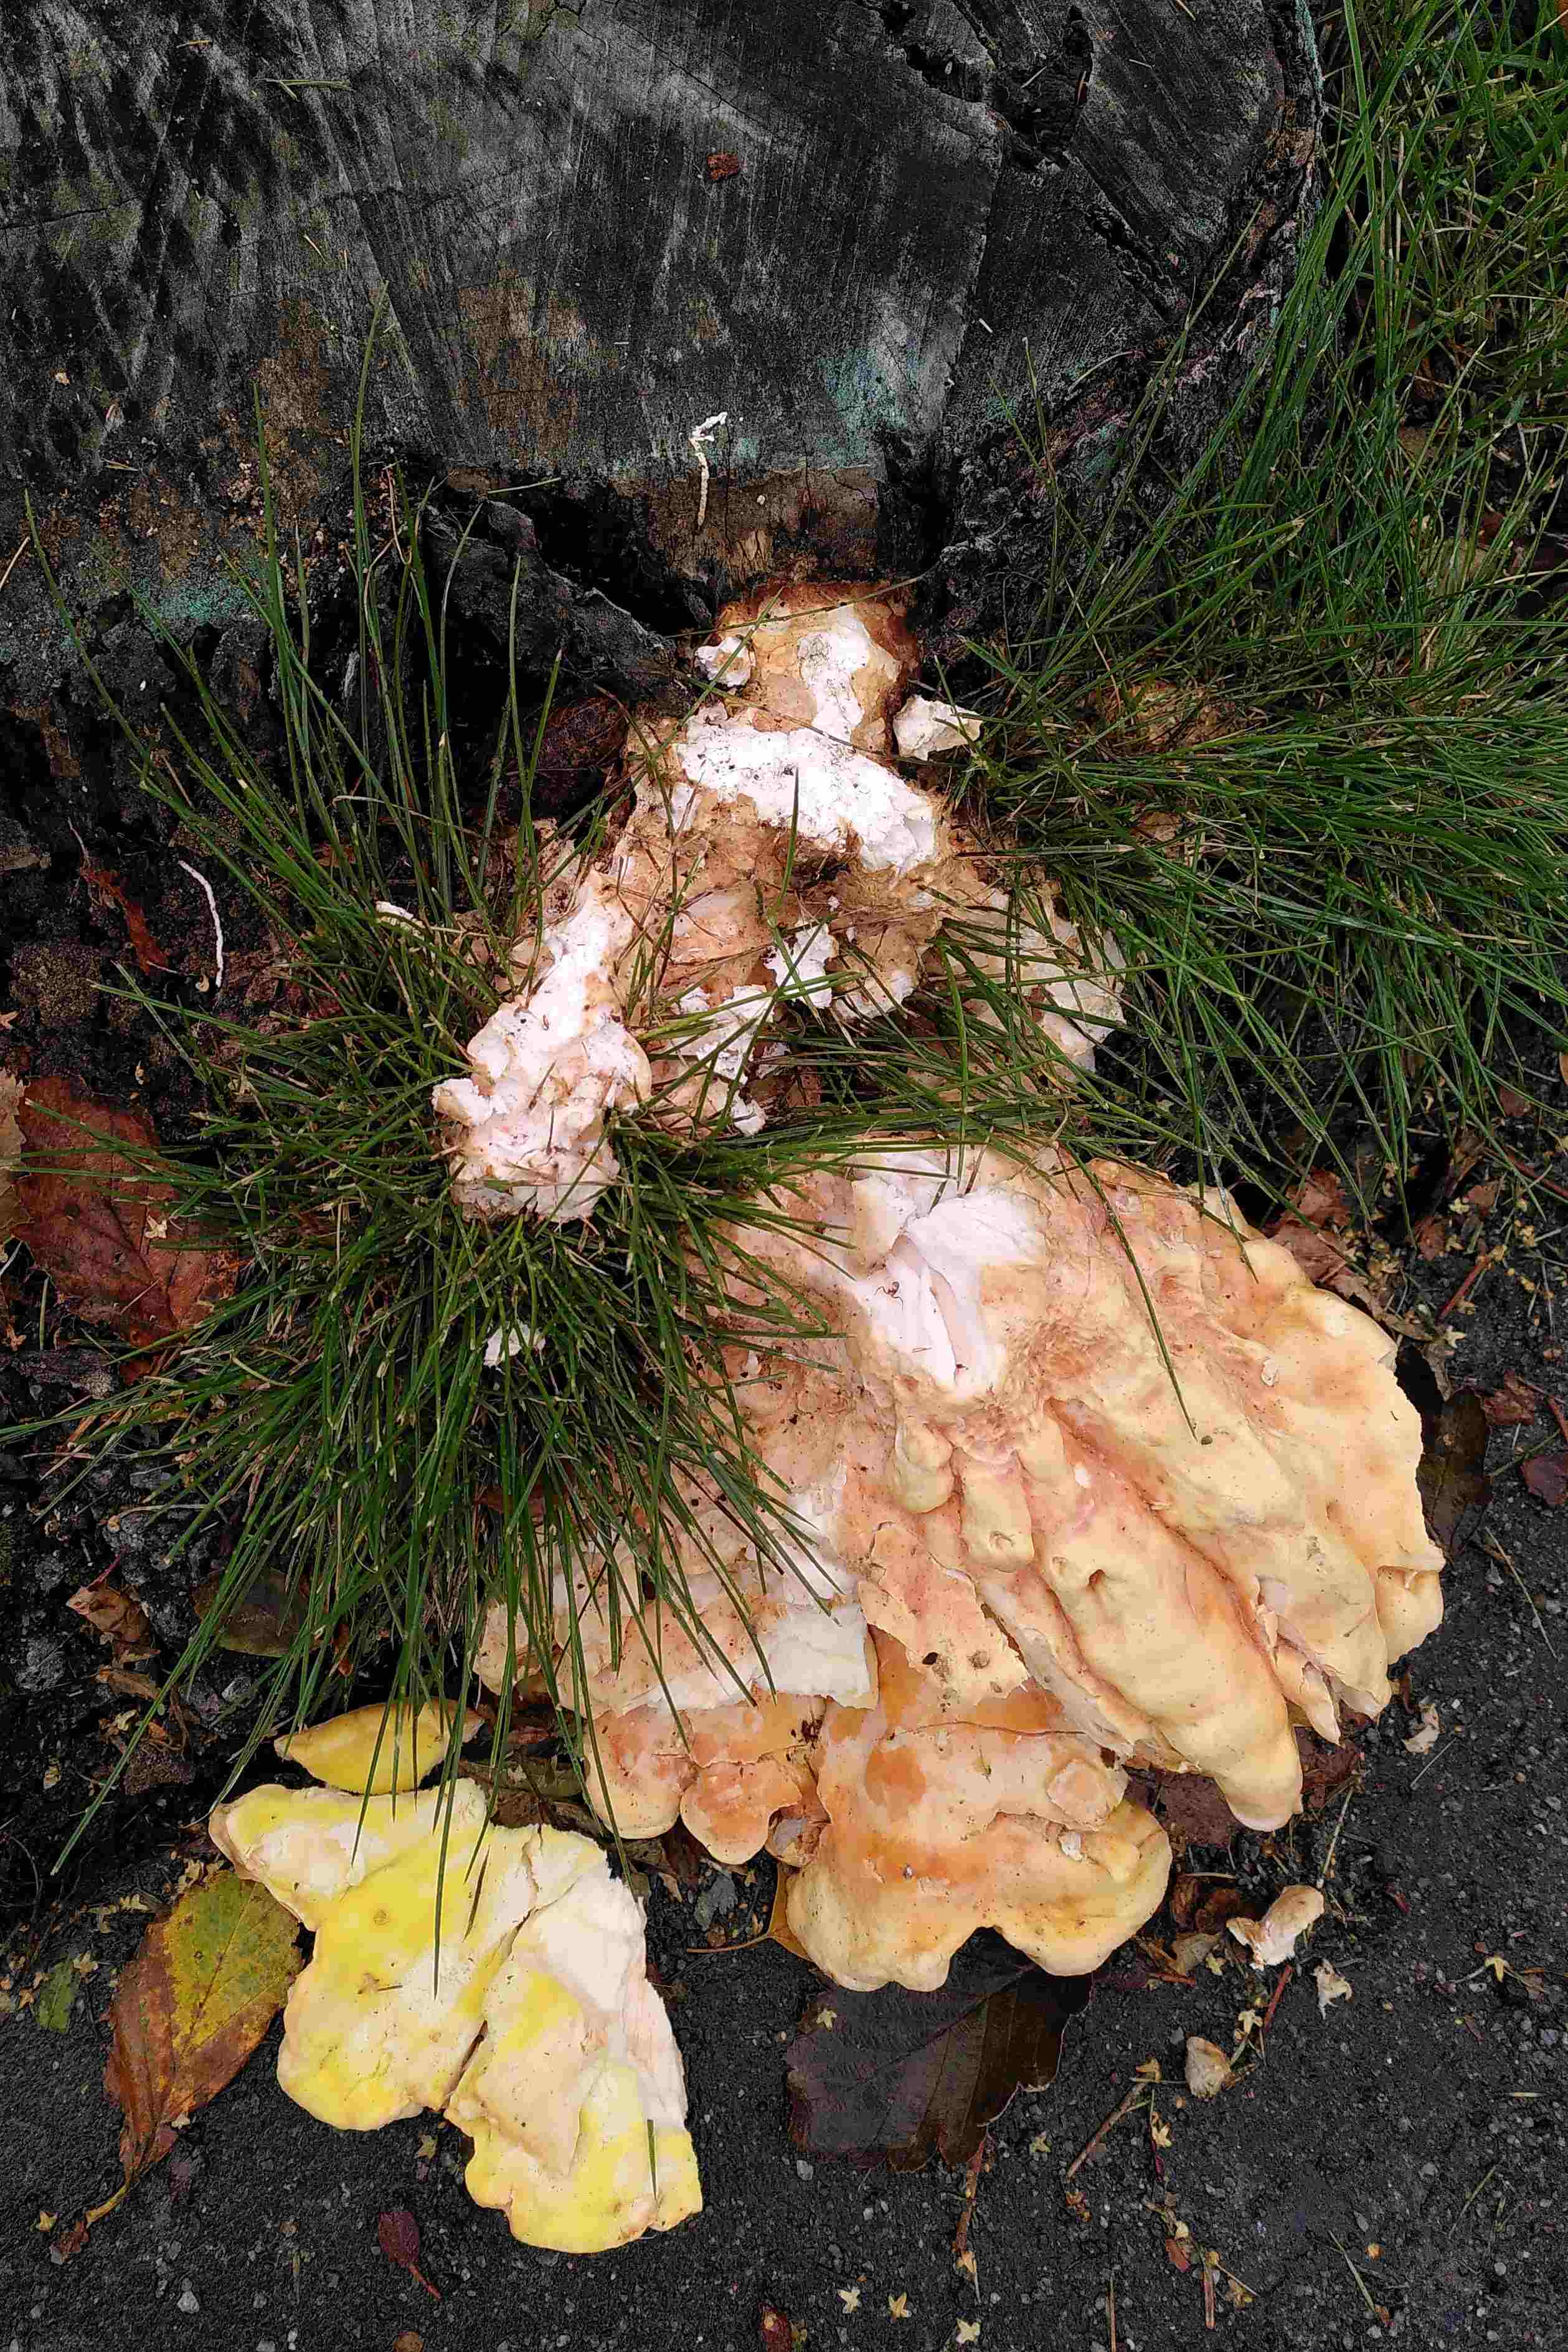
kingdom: Fungi
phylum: Basidiomycota
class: Agaricomycetes
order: Polyporales
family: Laetiporaceae
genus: Laetiporus
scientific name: Laetiporus sulphureus
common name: svovlporesvamp
